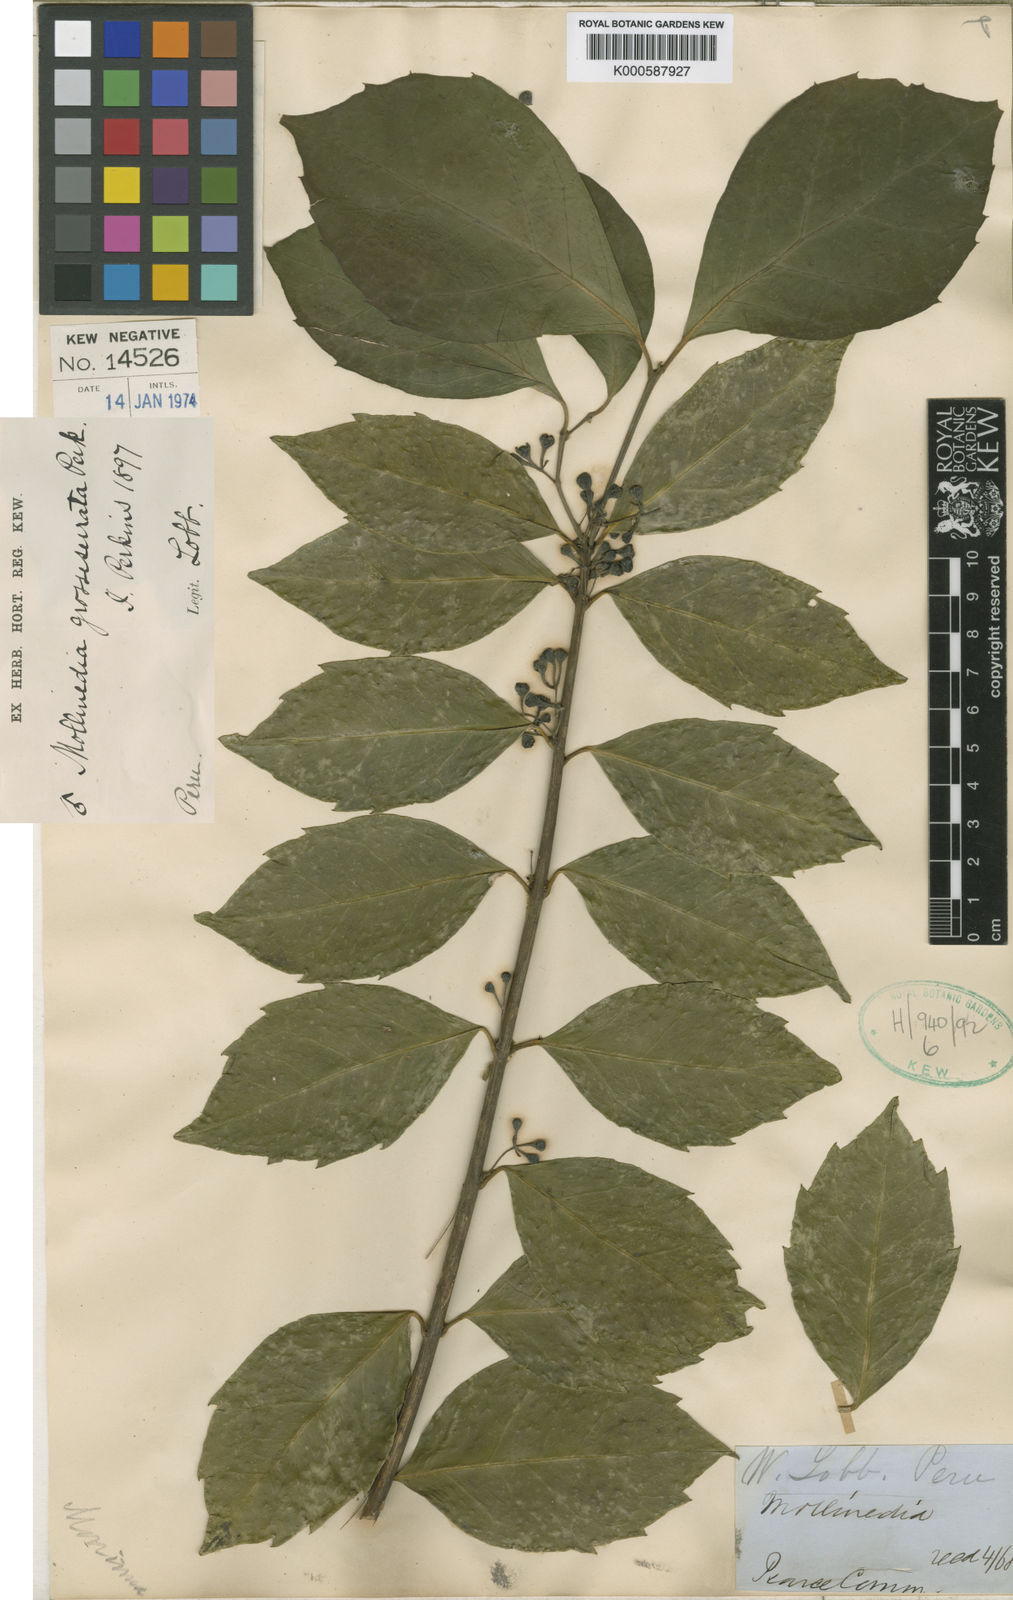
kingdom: Plantae
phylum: Tracheophyta
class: Magnoliopsida
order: Laurales
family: Monimiaceae
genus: Mollinedia
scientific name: Mollinedia ovata
